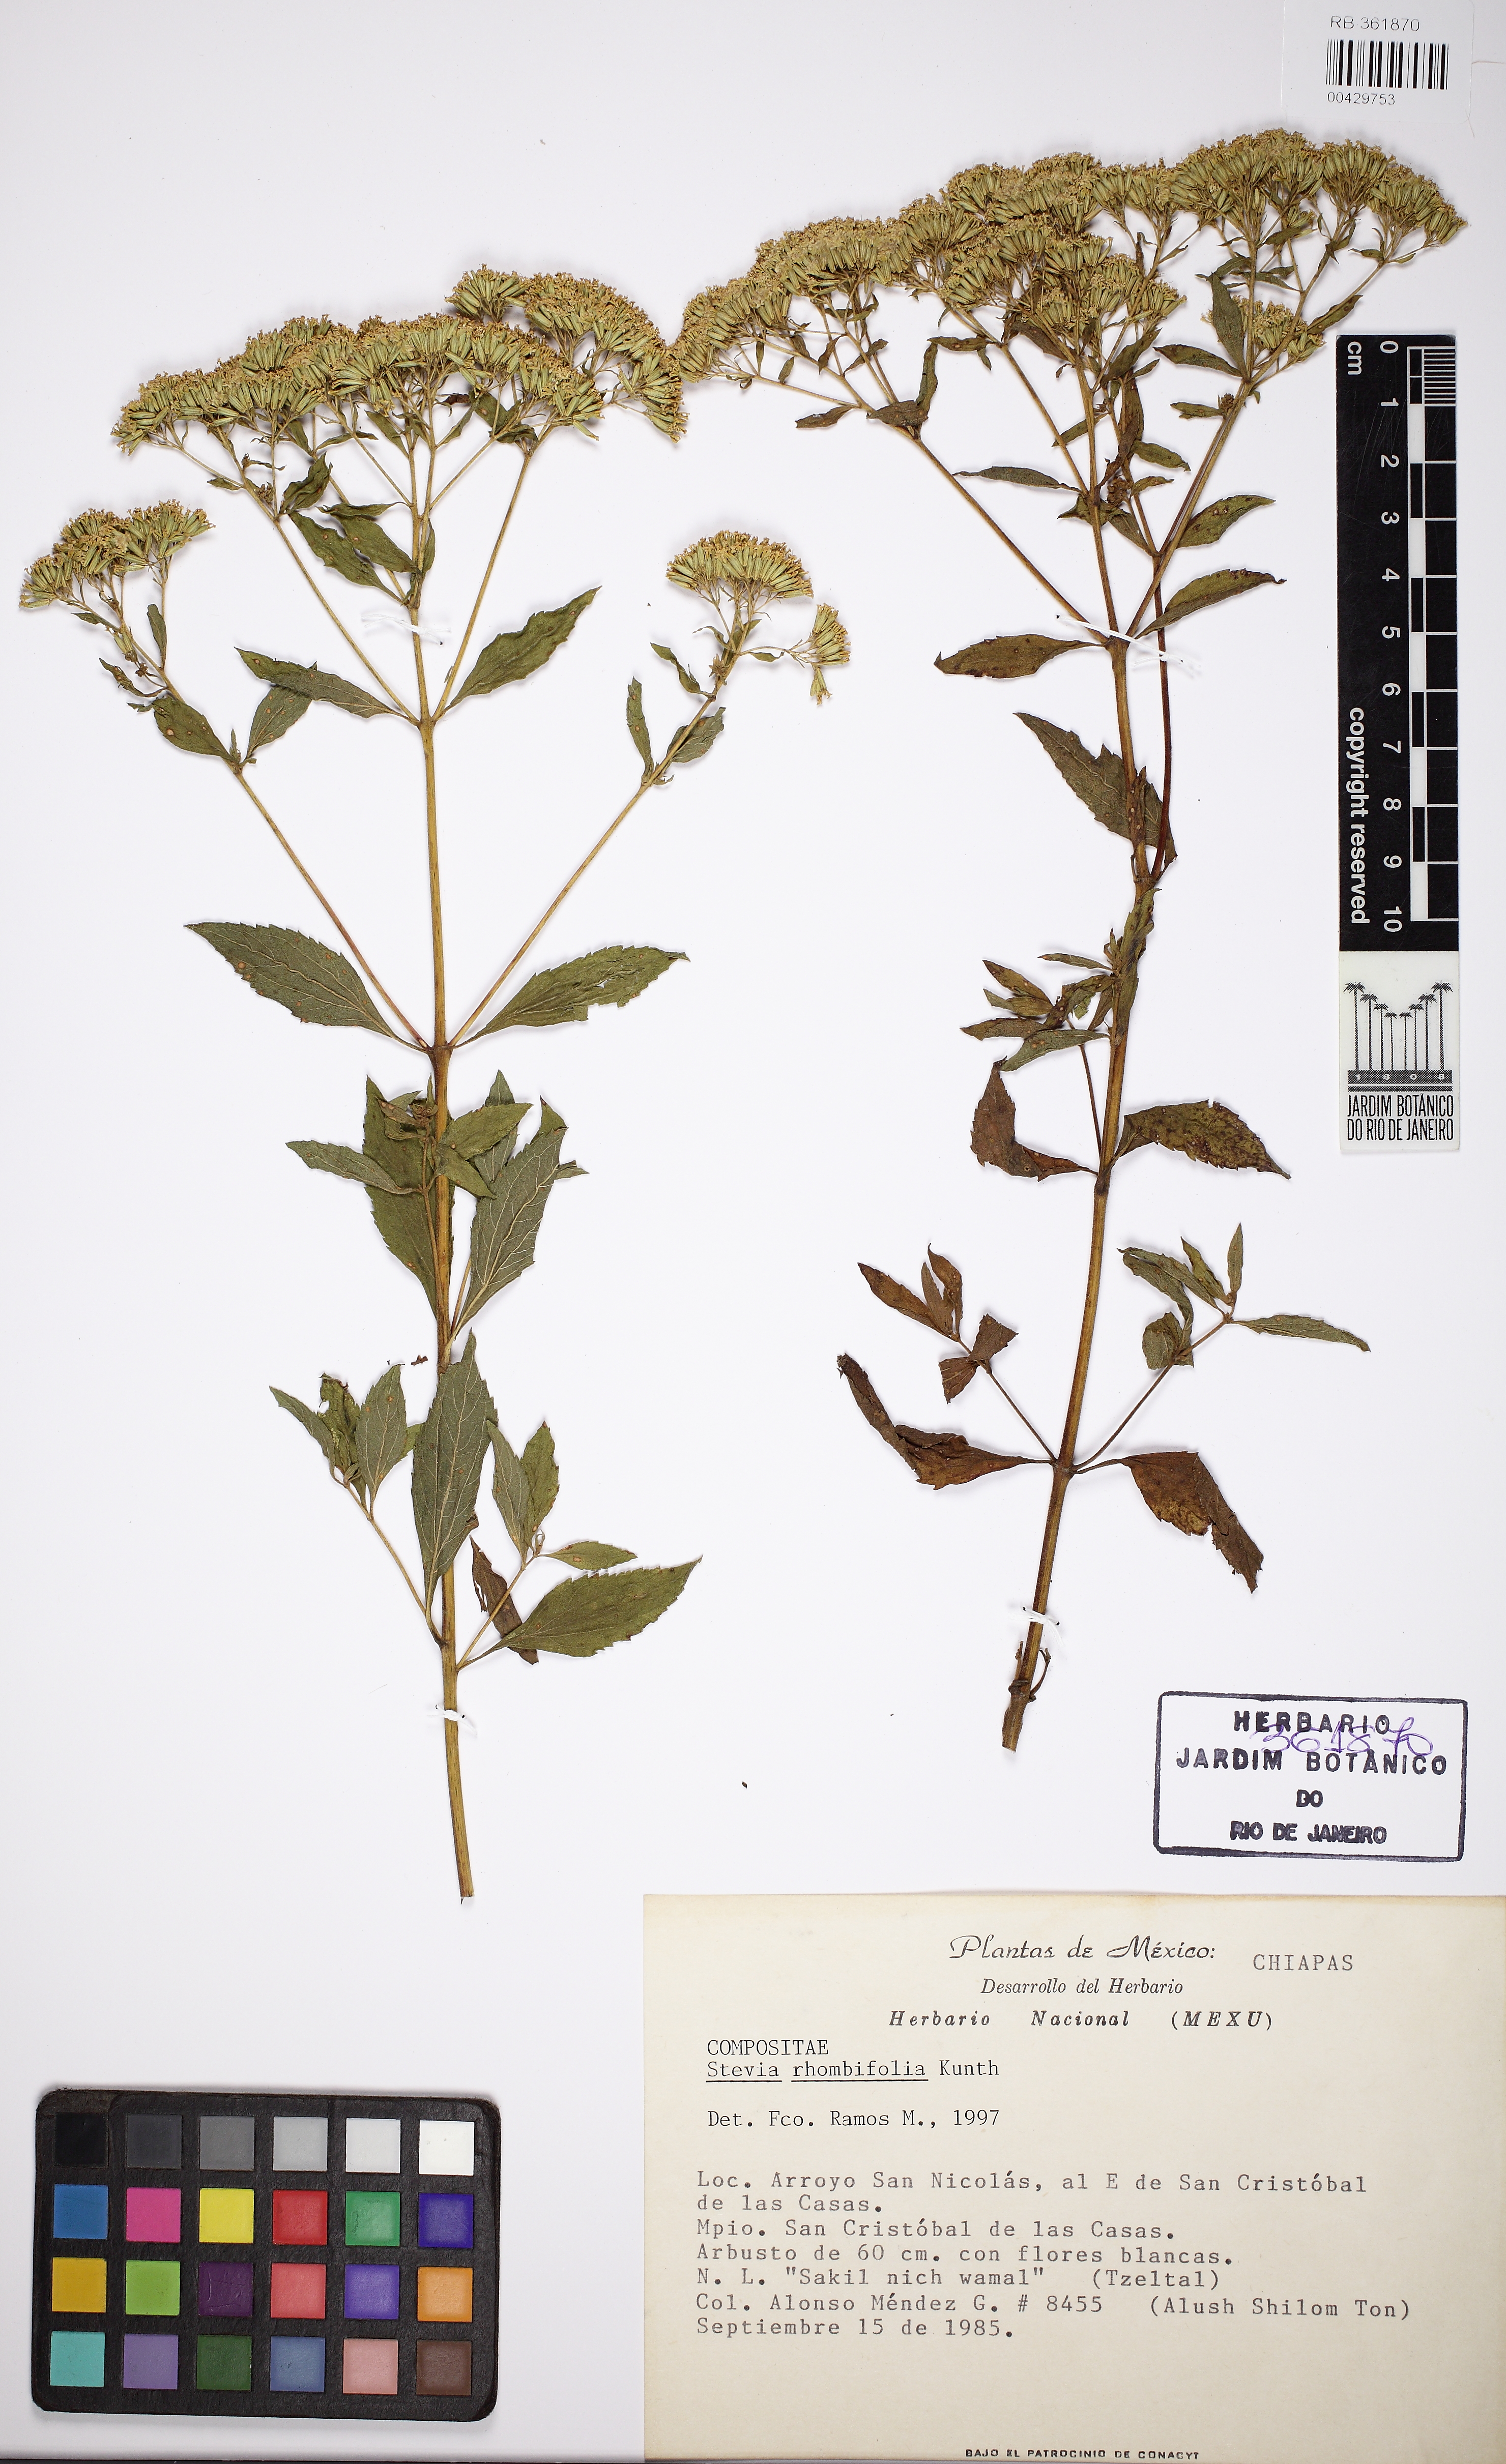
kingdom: Plantae
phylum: Tracheophyta
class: Magnoliopsida
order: Asterales
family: Asteraceae
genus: Stevia
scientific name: Stevia ovata
